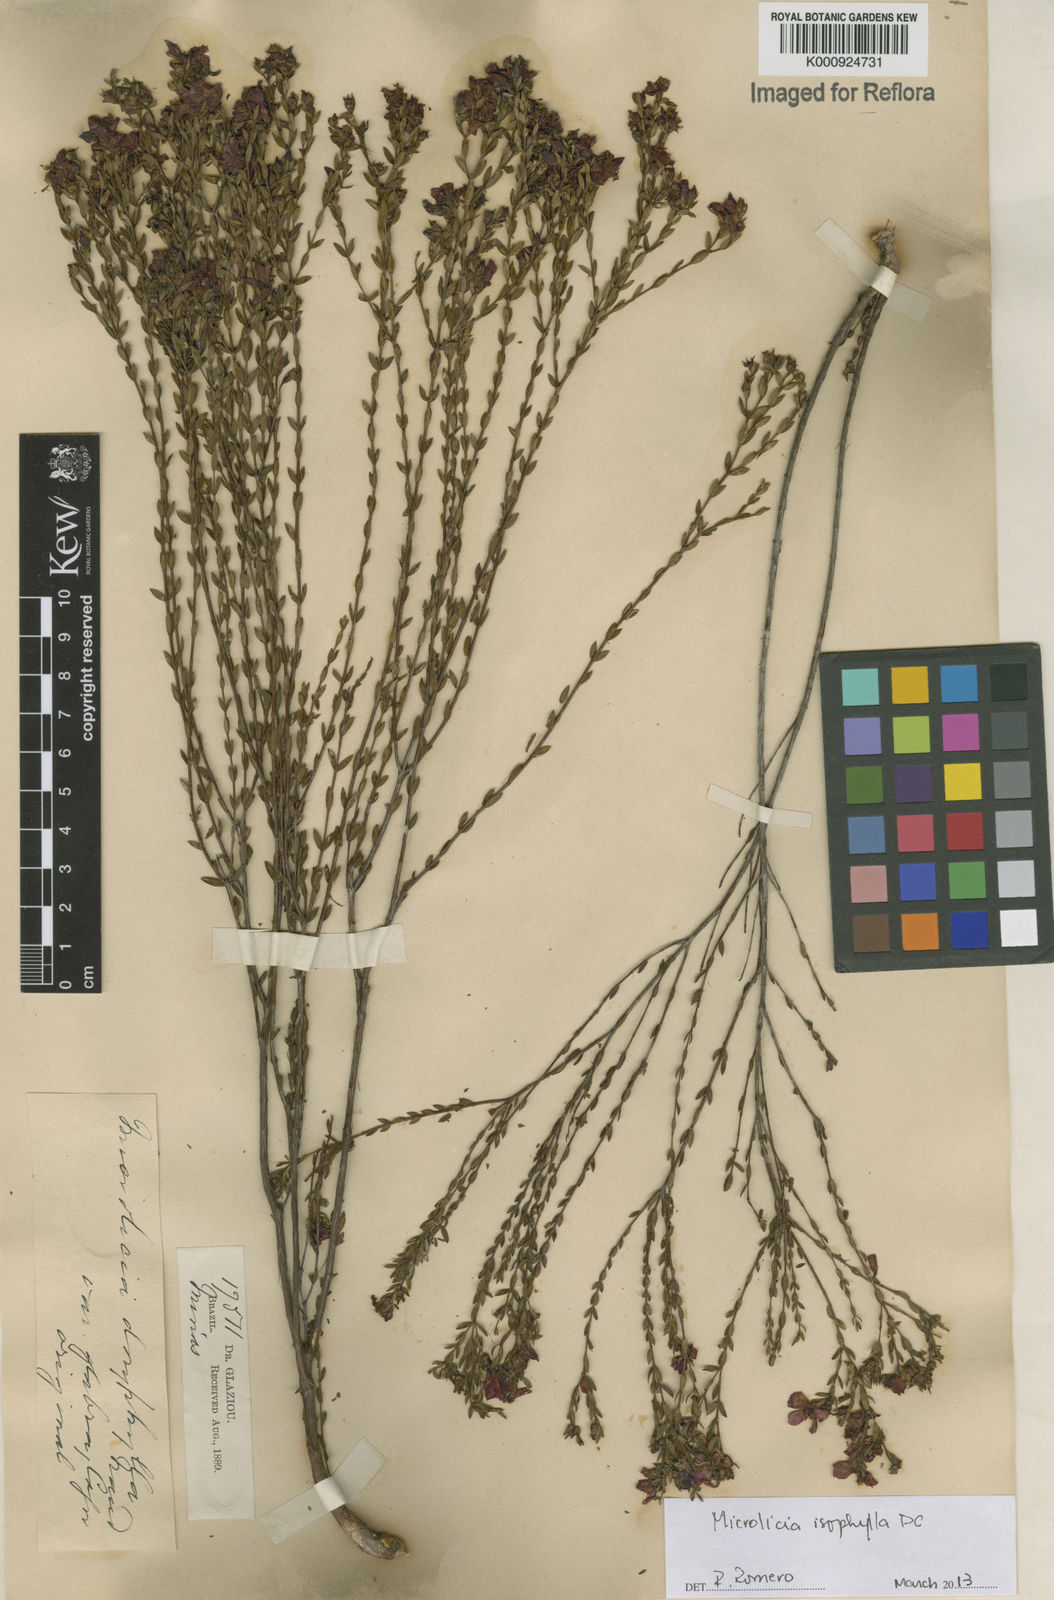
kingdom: Plantae
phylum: Tracheophyta
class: Magnoliopsida
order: Myrtales
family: Melastomataceae
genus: Microlicia
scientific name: Microlicia isophylla
